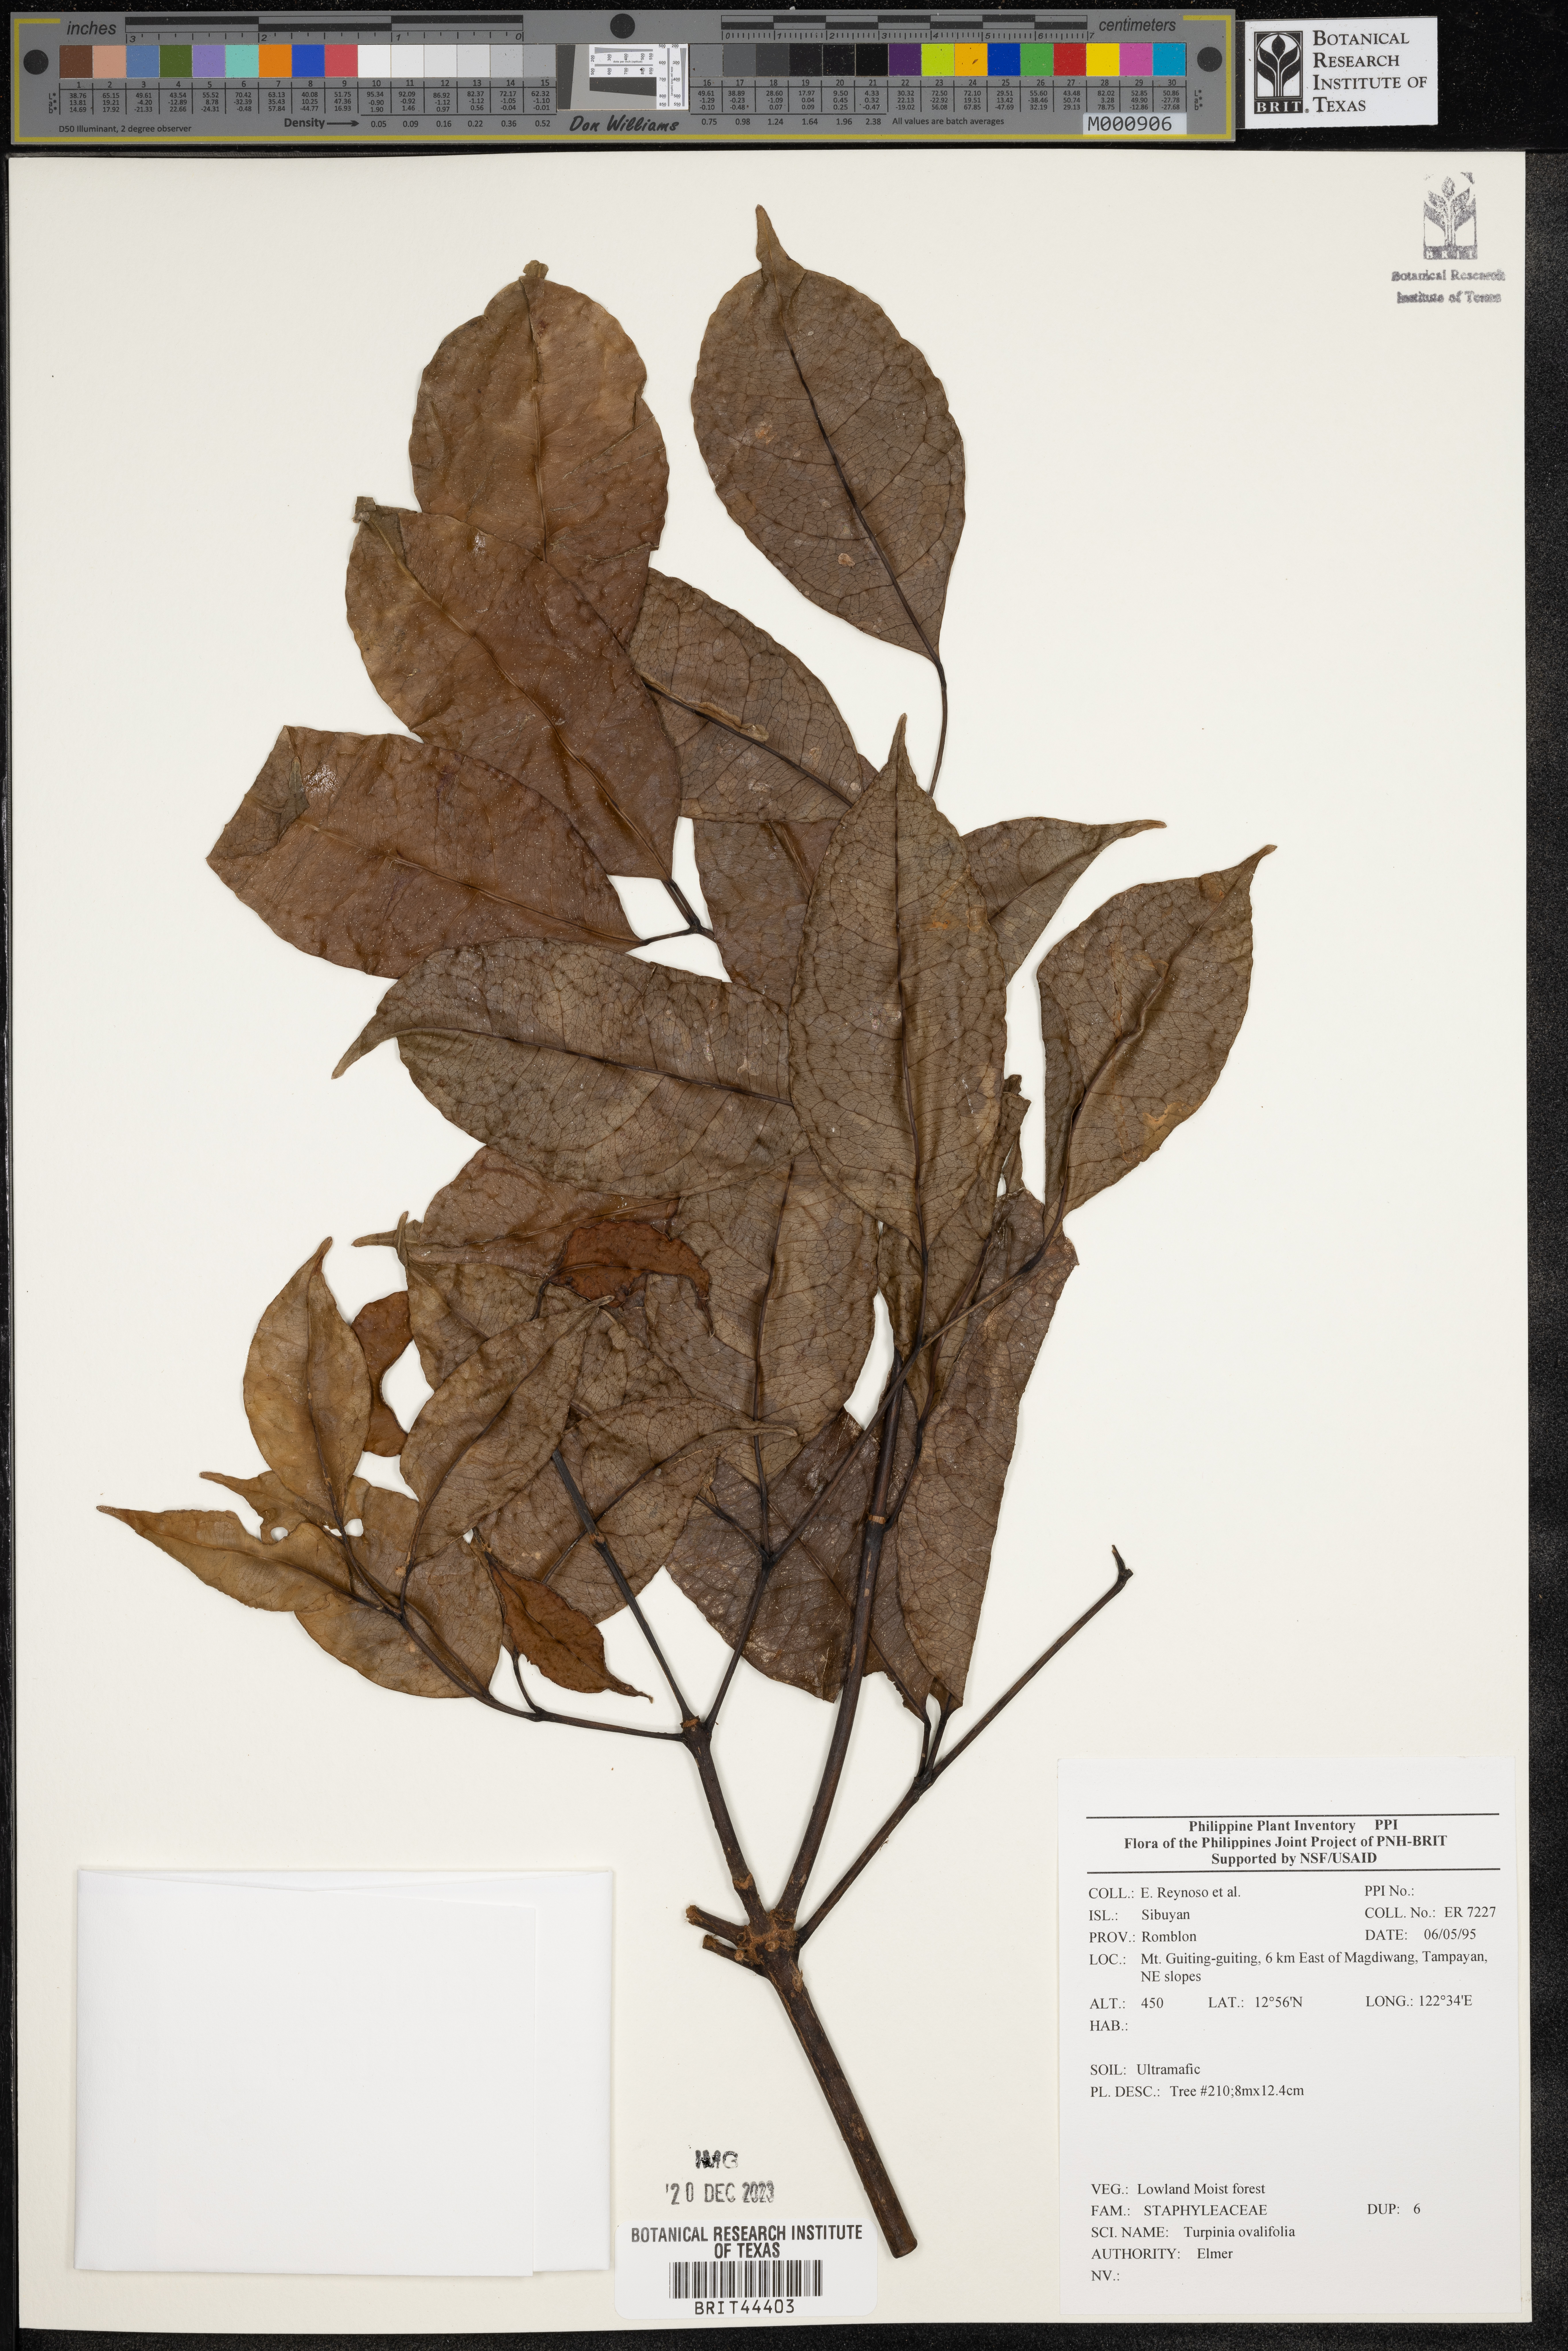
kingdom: Plantae
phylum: Tracheophyta
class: Magnoliopsida
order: Crossosomatales
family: Staphyleaceae
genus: Turpinia
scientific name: Turpinia
